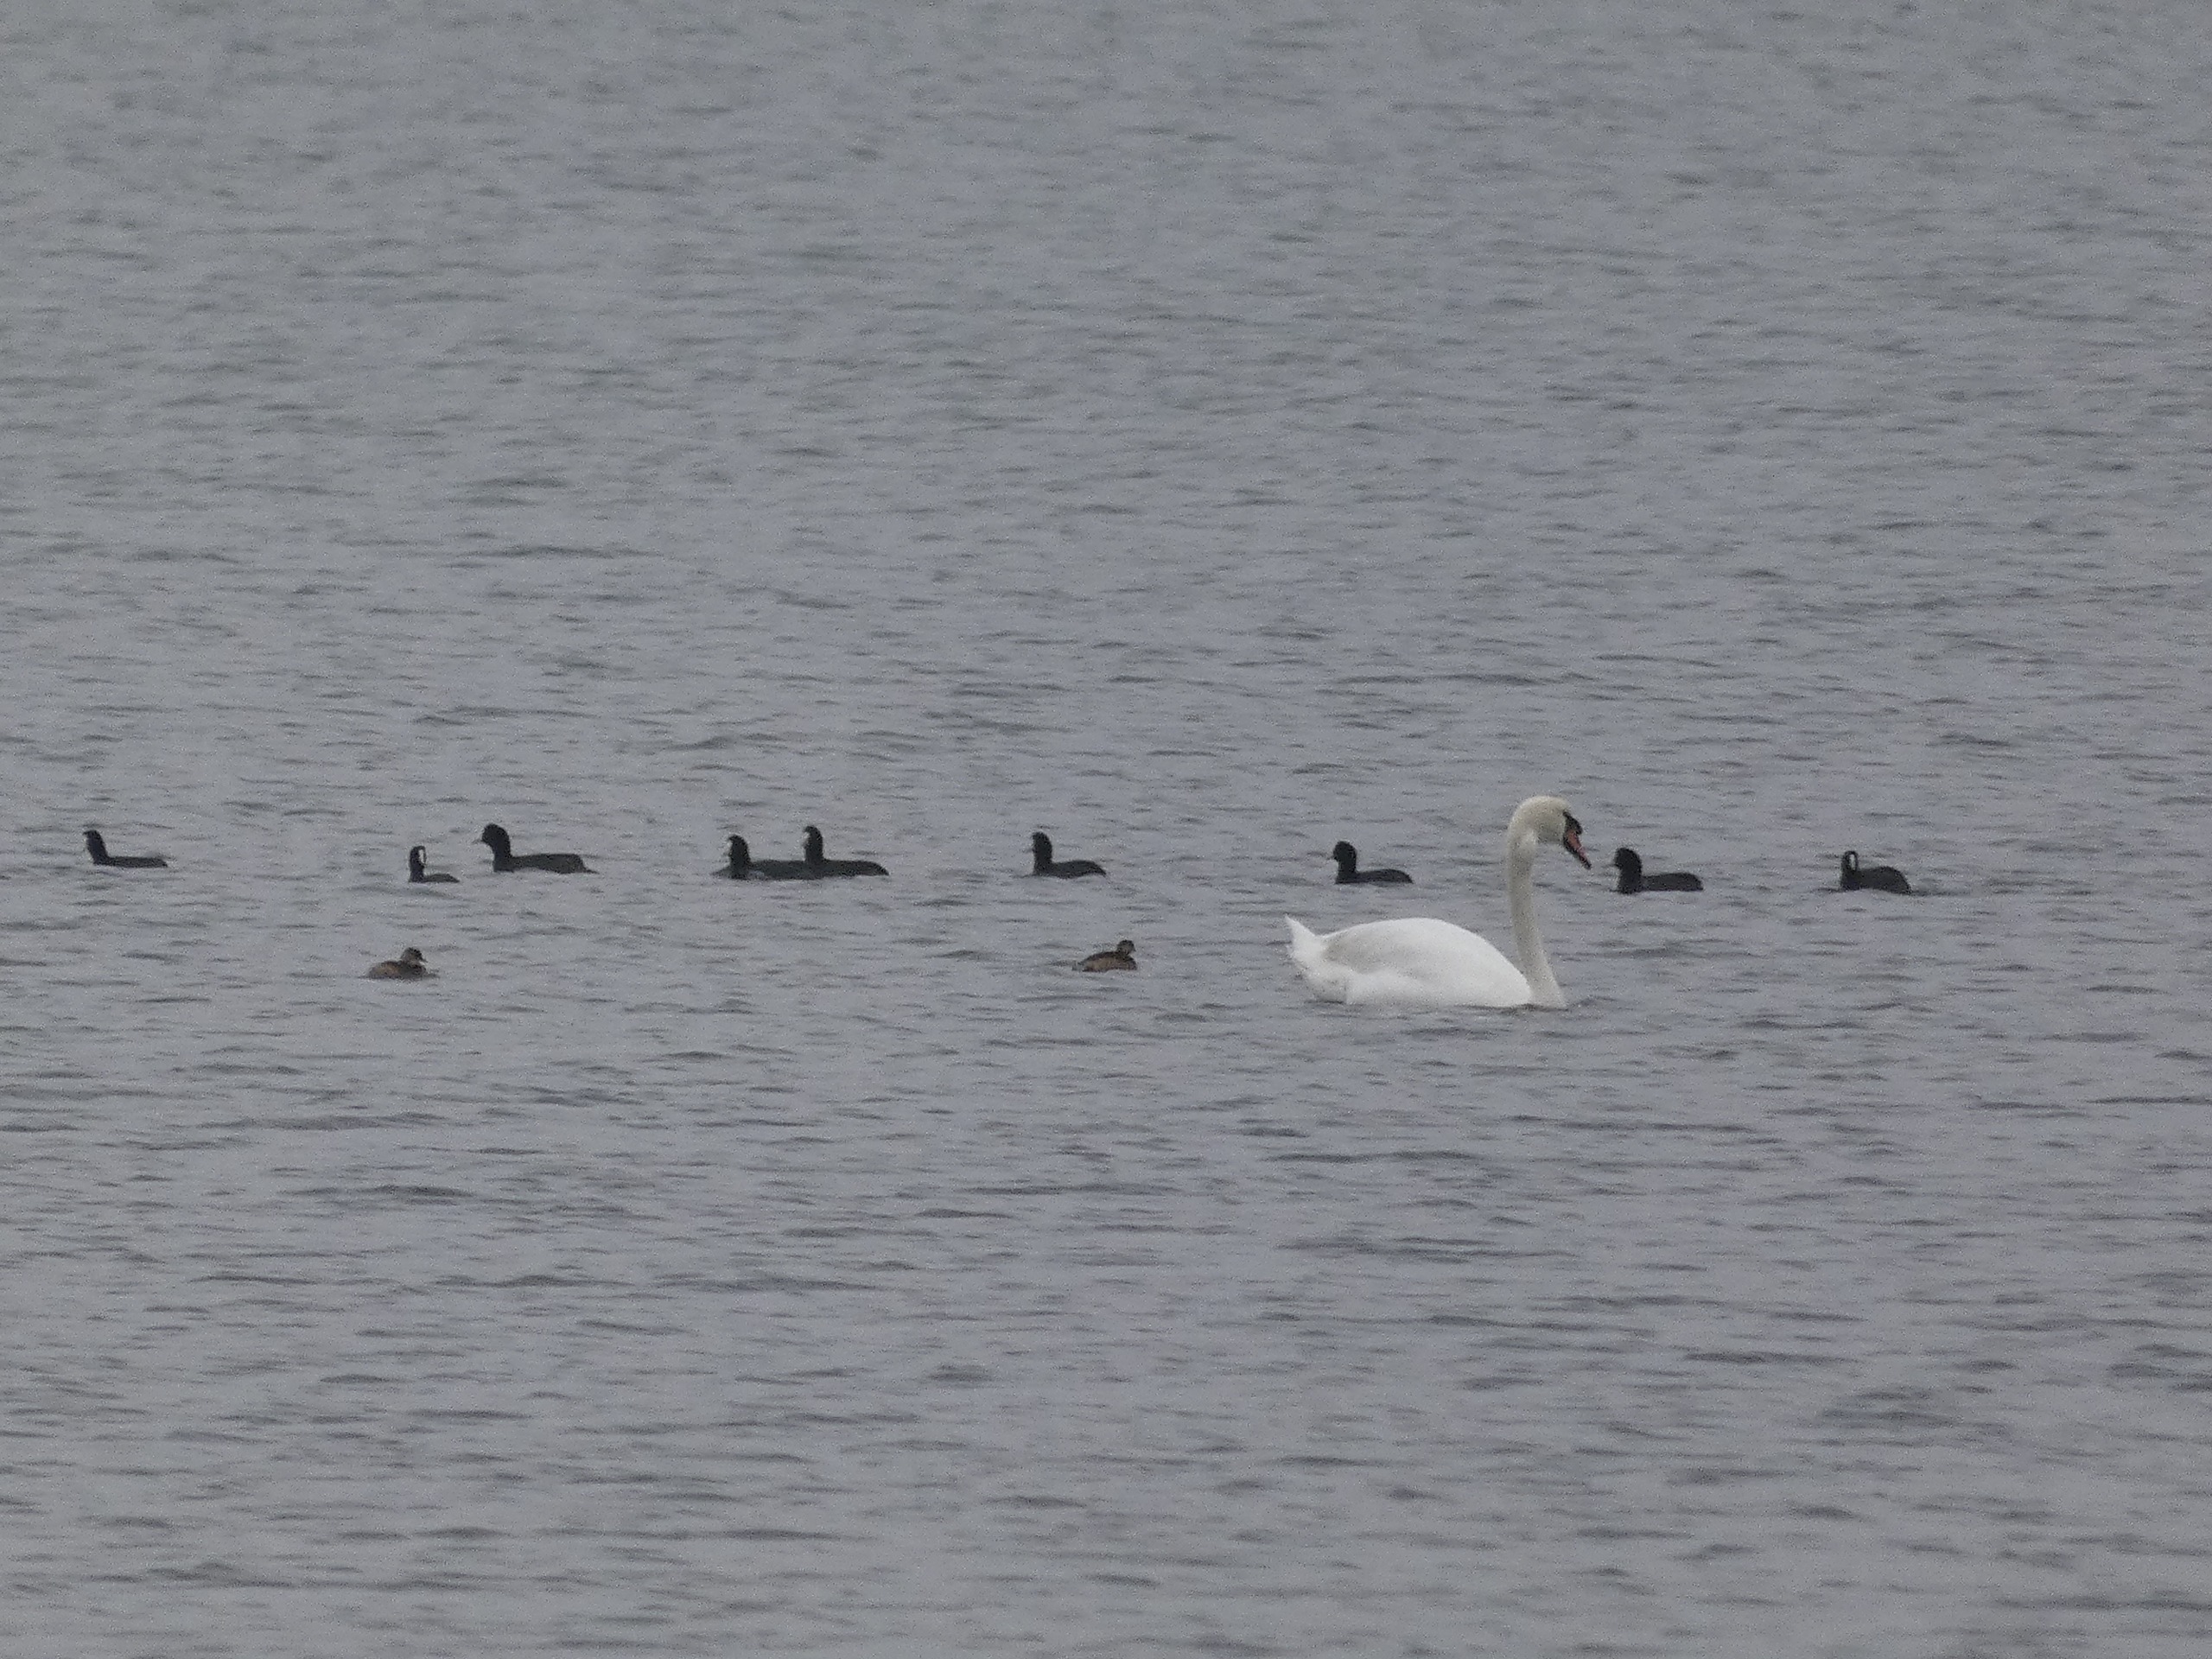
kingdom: Animalia
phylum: Chordata
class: Aves
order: Gruiformes
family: Rallidae
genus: Fulica
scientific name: Fulica atra
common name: Blishøne
